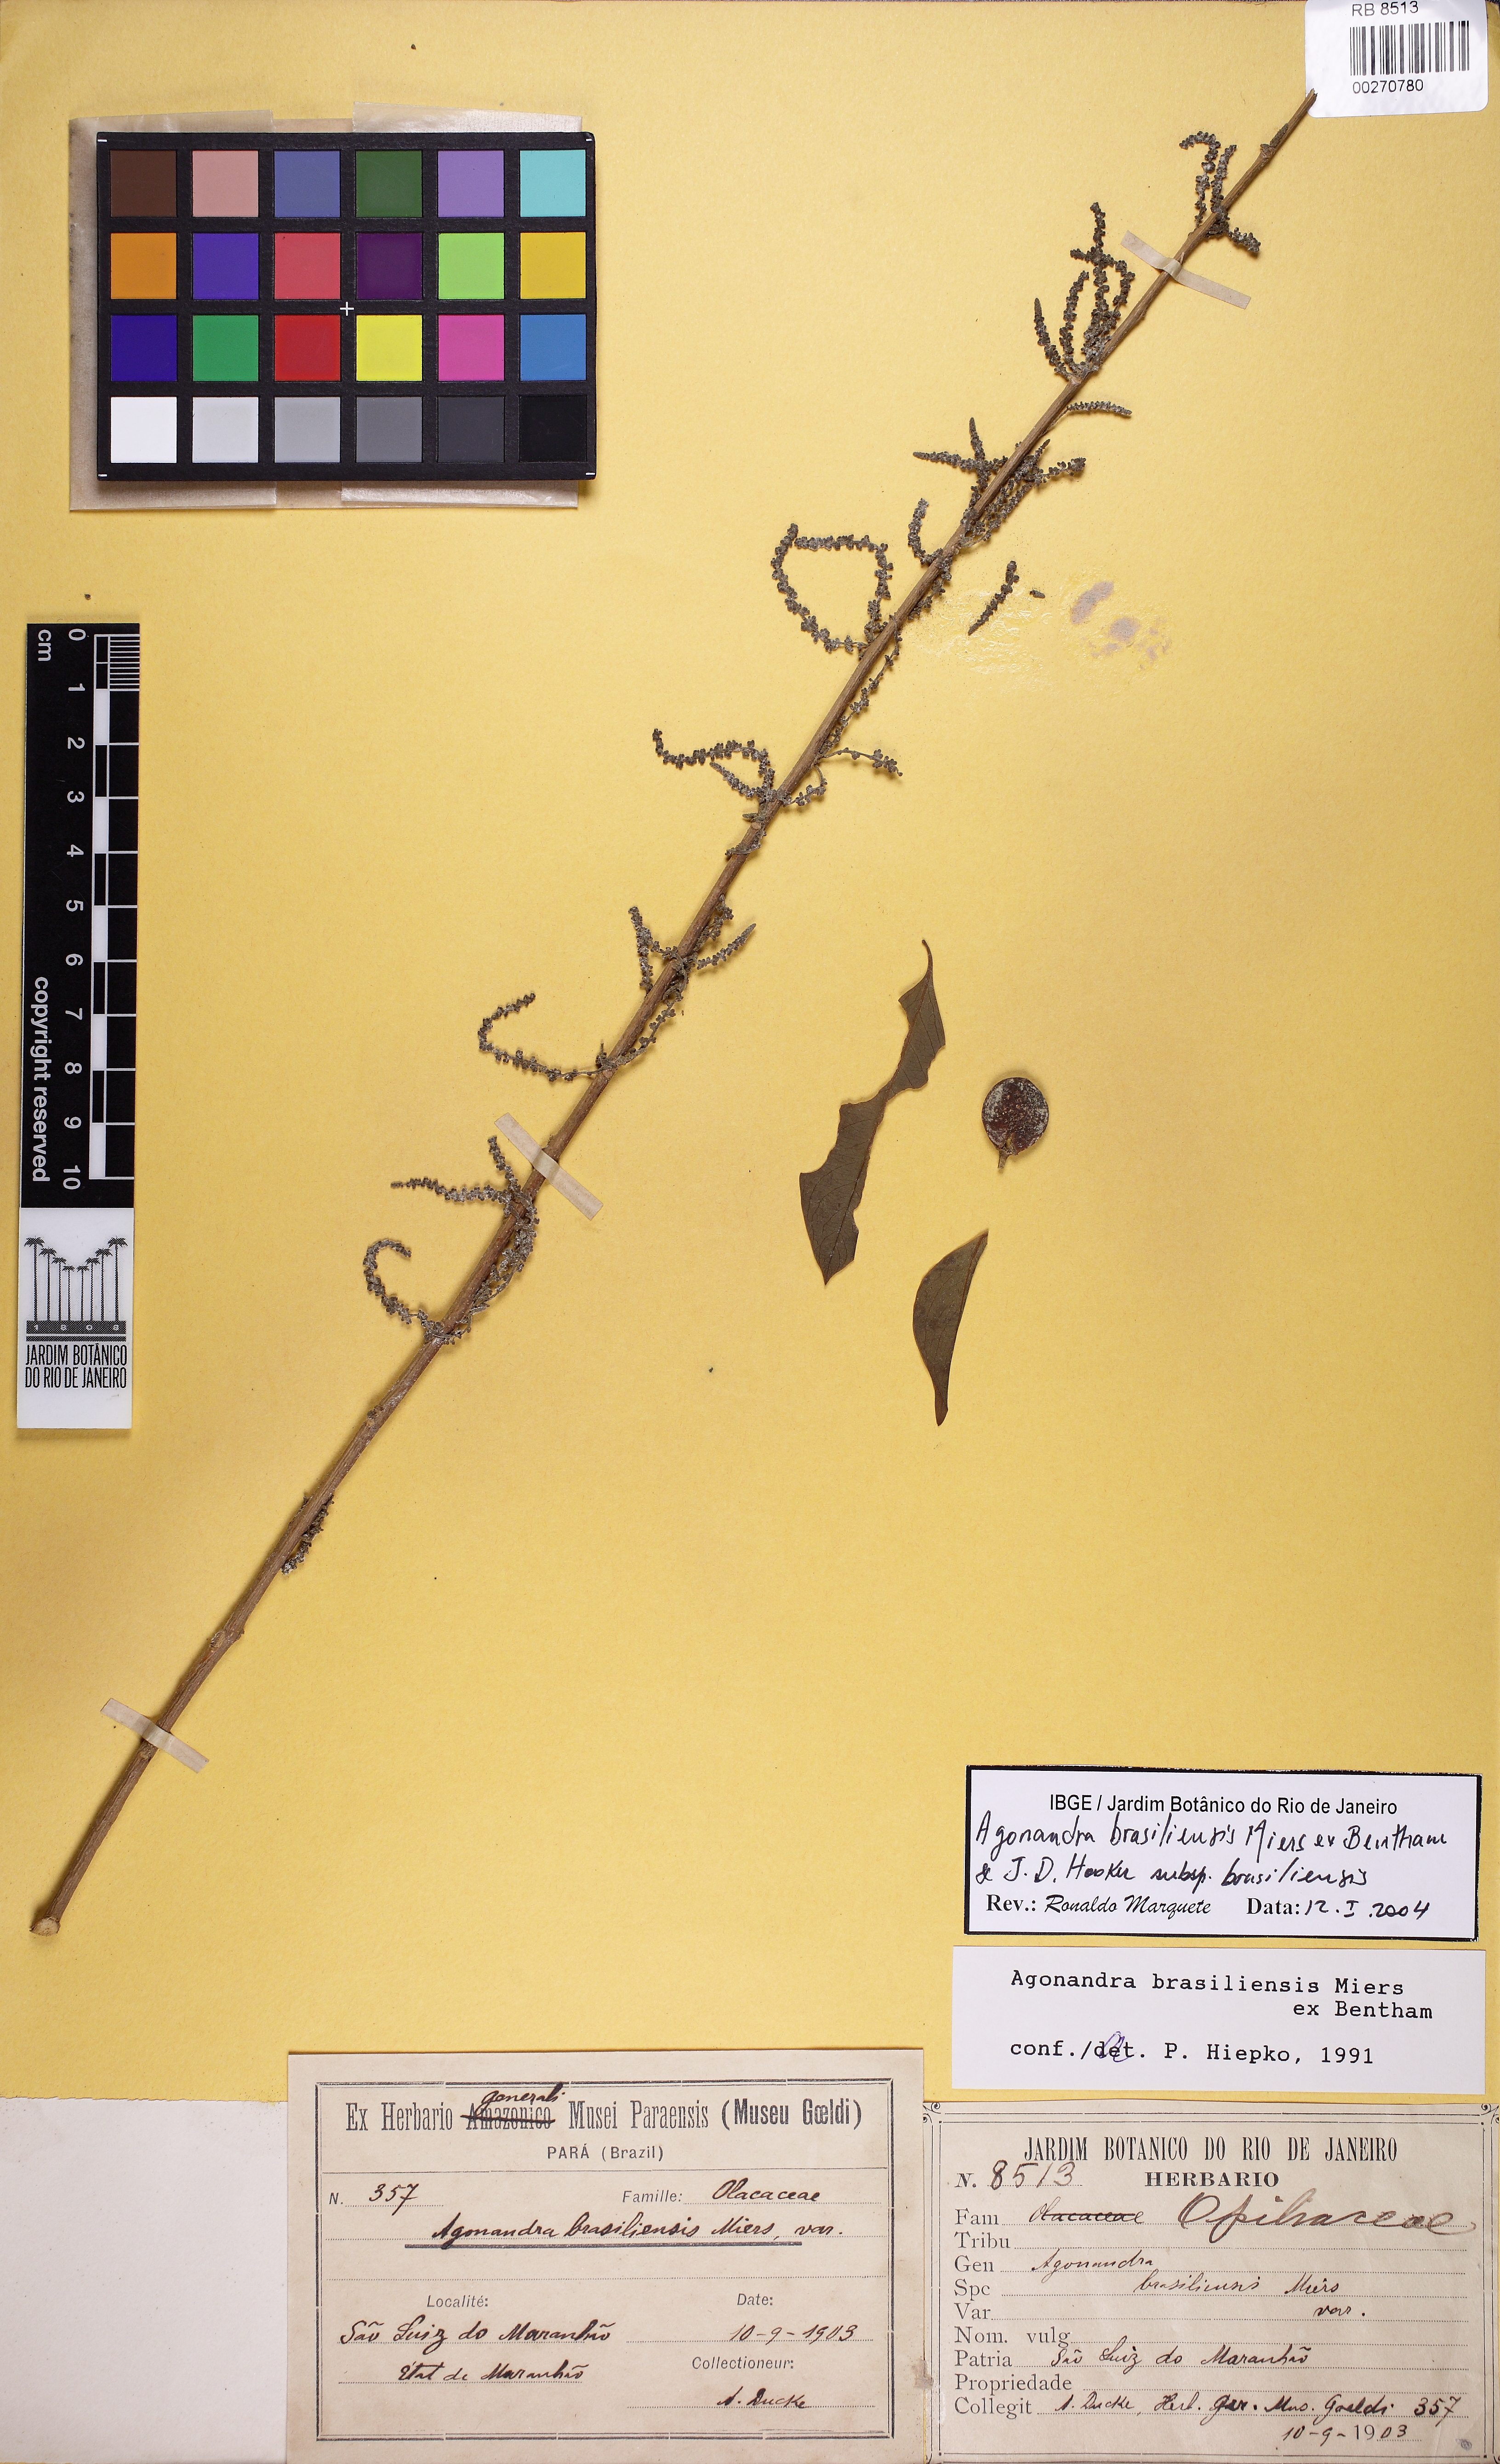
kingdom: Plantae
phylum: Tracheophyta
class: Magnoliopsida
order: Santalales
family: Opiliaceae
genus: Agonandra
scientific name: Agonandra brasiliensis
